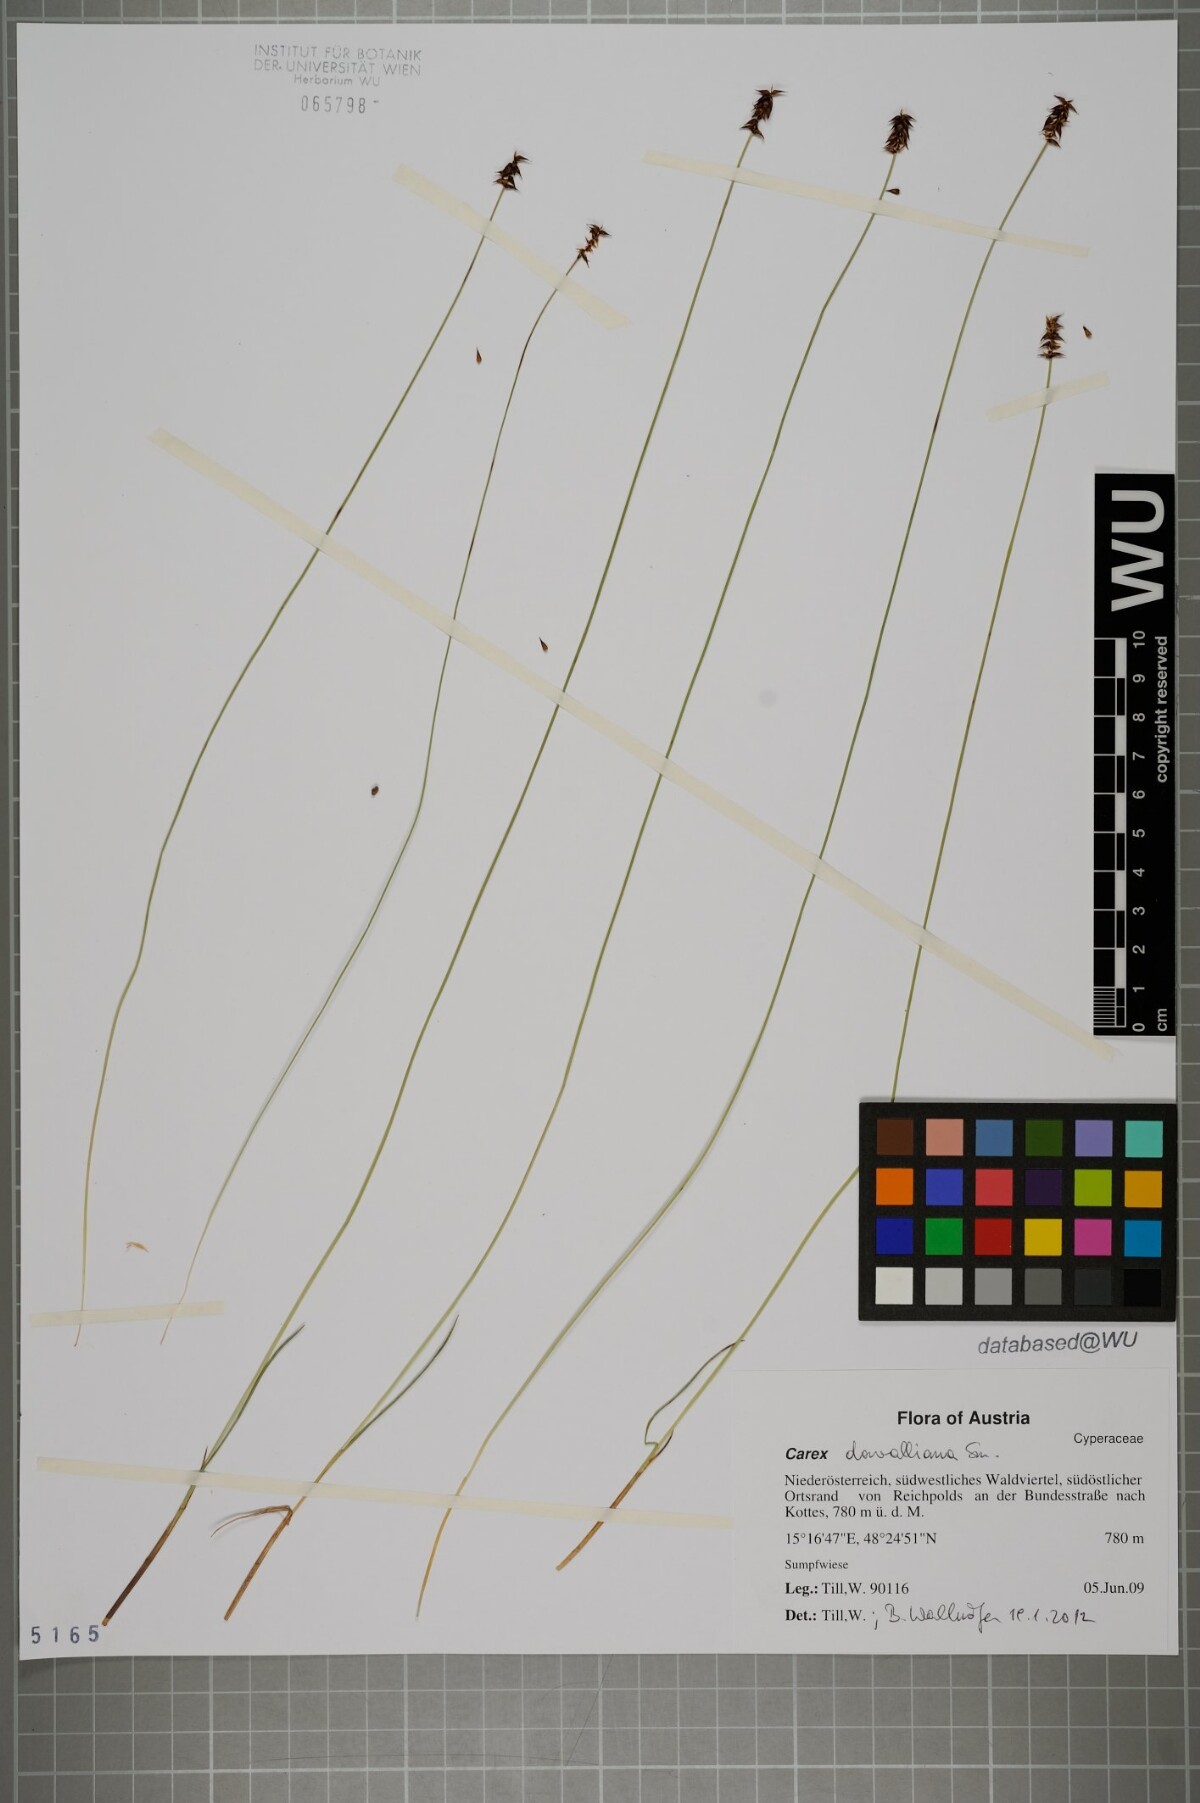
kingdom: Plantae
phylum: Tracheophyta
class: Liliopsida
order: Poales
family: Cyperaceae
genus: Carex
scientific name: Carex davalliana
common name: Davall's sedge
